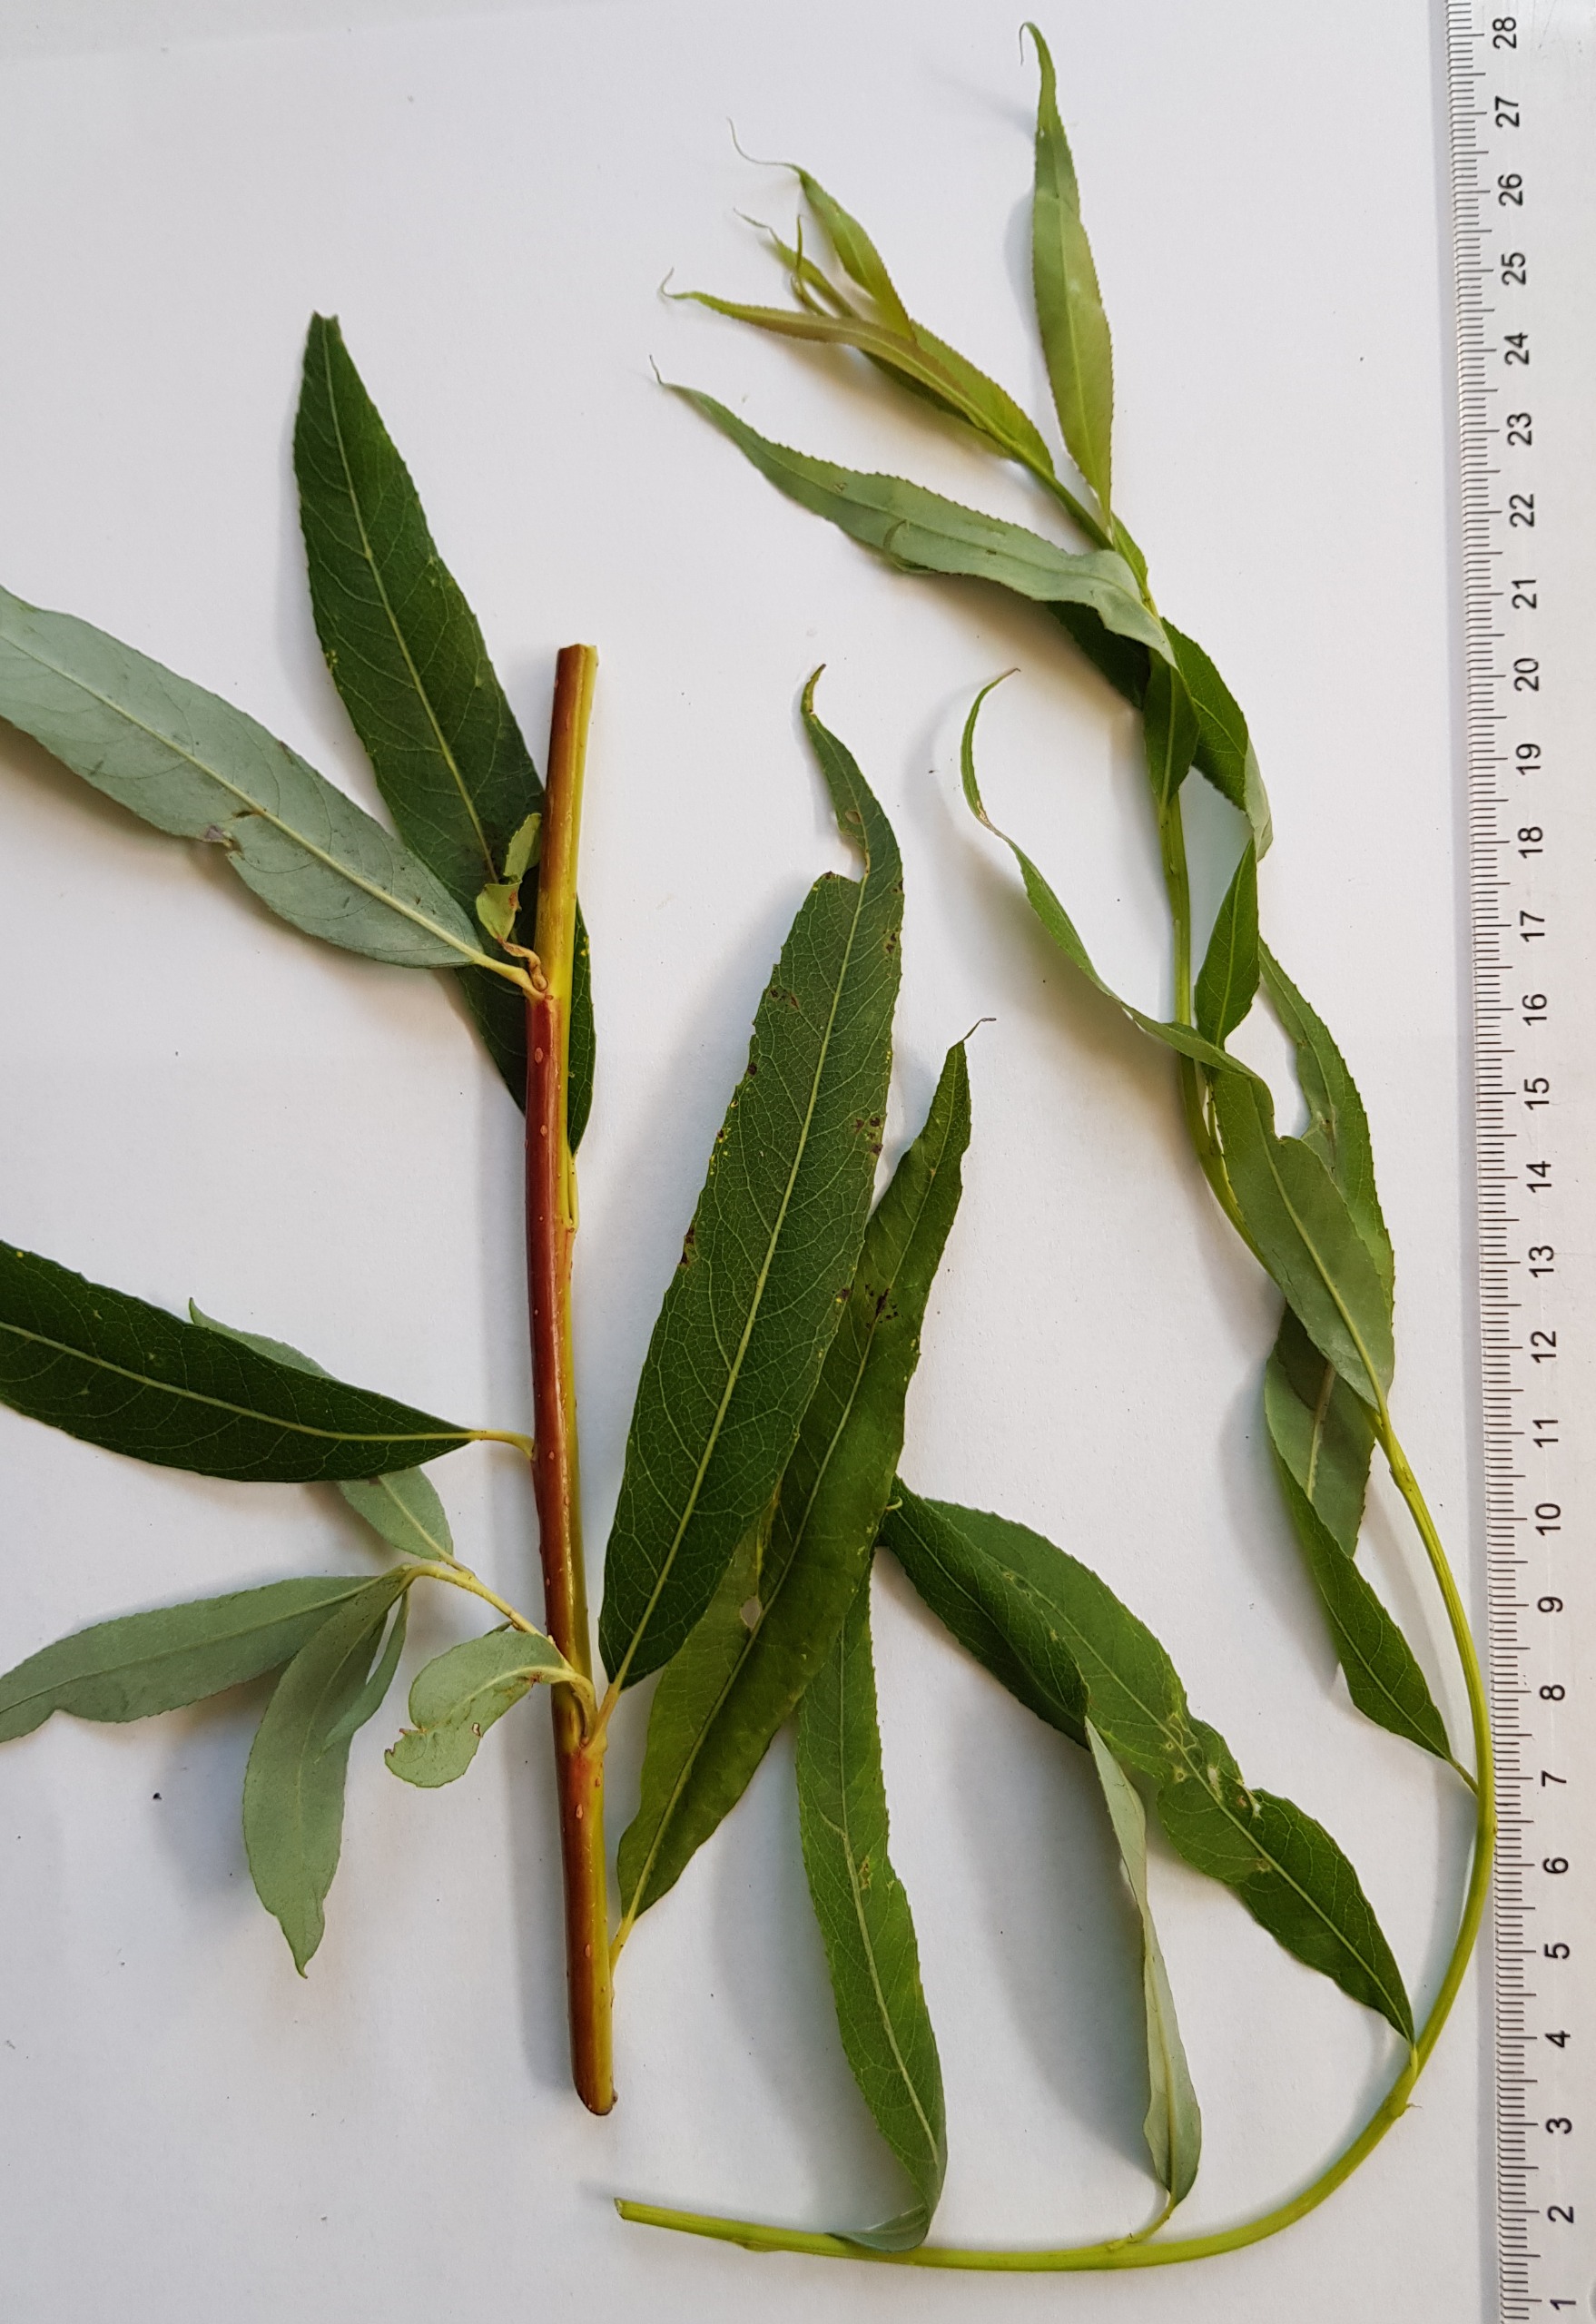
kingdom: Plantae
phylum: Tracheophyta
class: Magnoliopsida
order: Malpighiales
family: Salicaceae
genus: Salix
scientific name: Salix sepulcralis
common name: Hænge-pil
